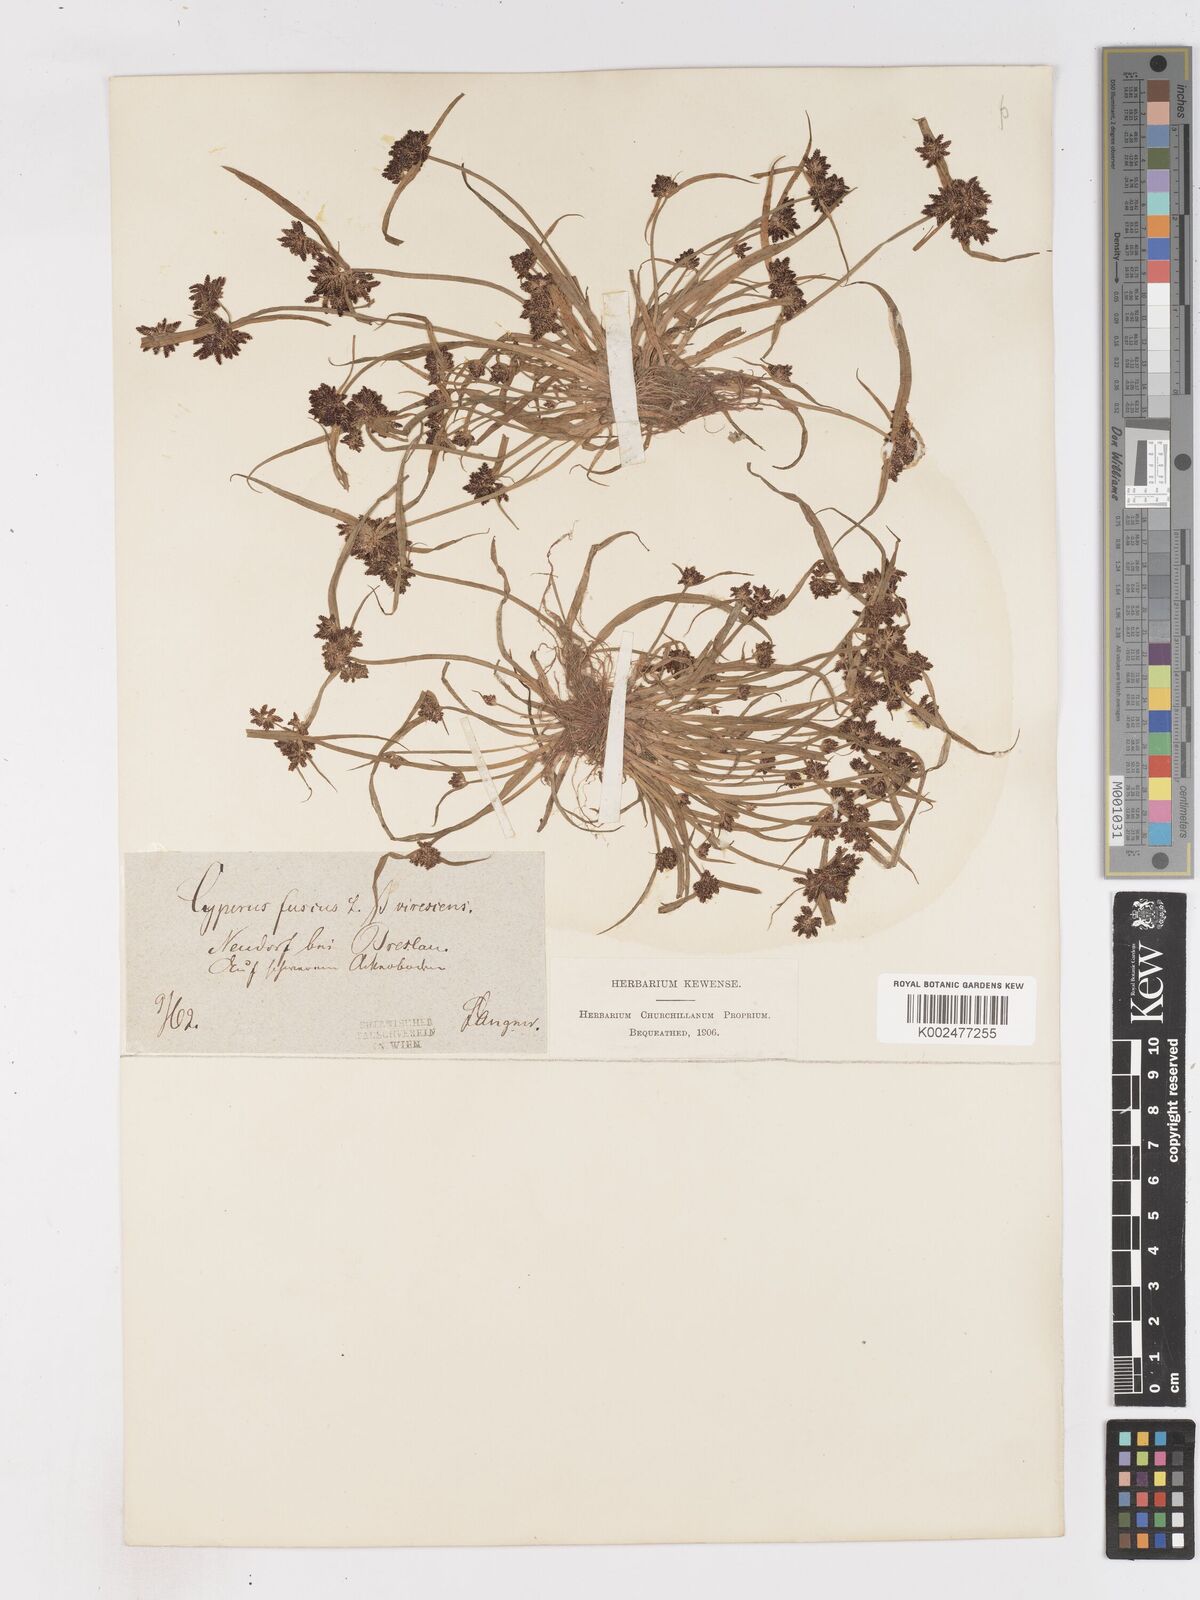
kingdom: Plantae
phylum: Tracheophyta
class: Liliopsida
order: Poales
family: Cyperaceae
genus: Cyperus
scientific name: Cyperus fuscus
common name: Brown galingale
